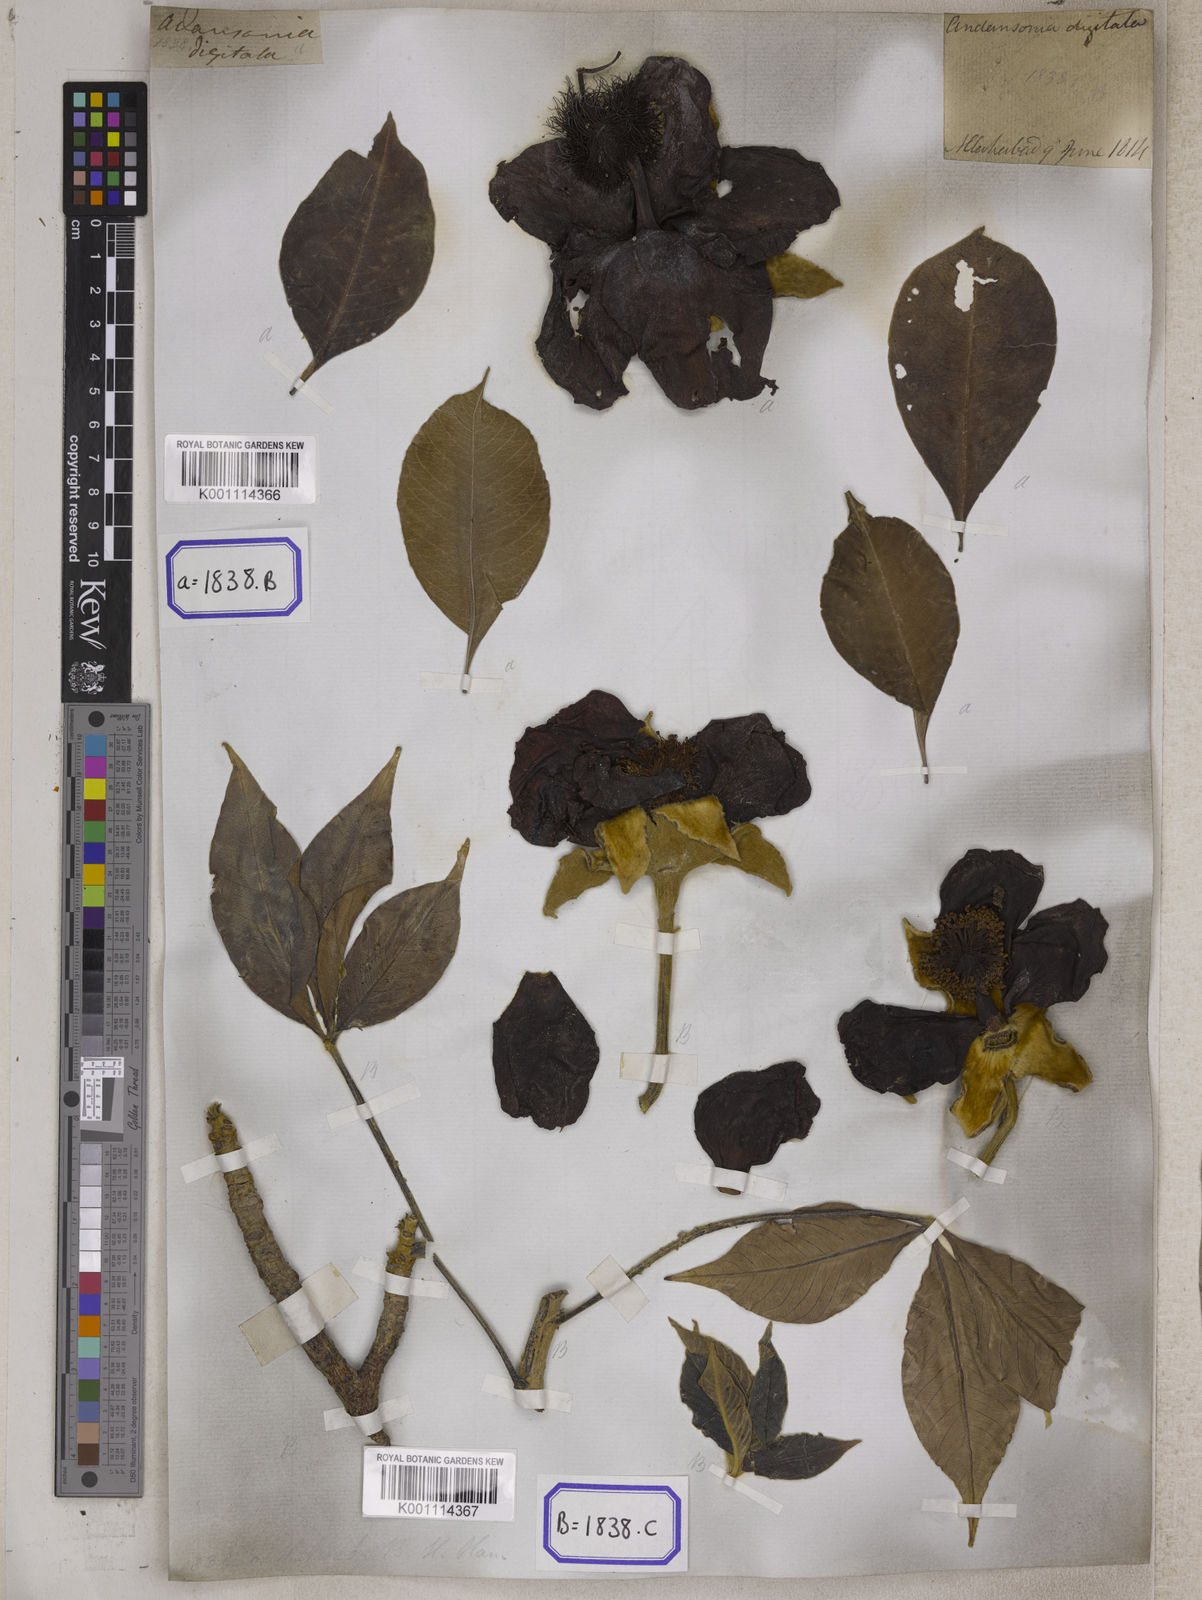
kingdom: Plantae
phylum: Tracheophyta
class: Magnoliopsida
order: Malvales
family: Malvaceae
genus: Adansonia
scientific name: Adansonia digitata
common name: Dead-rat-tree
